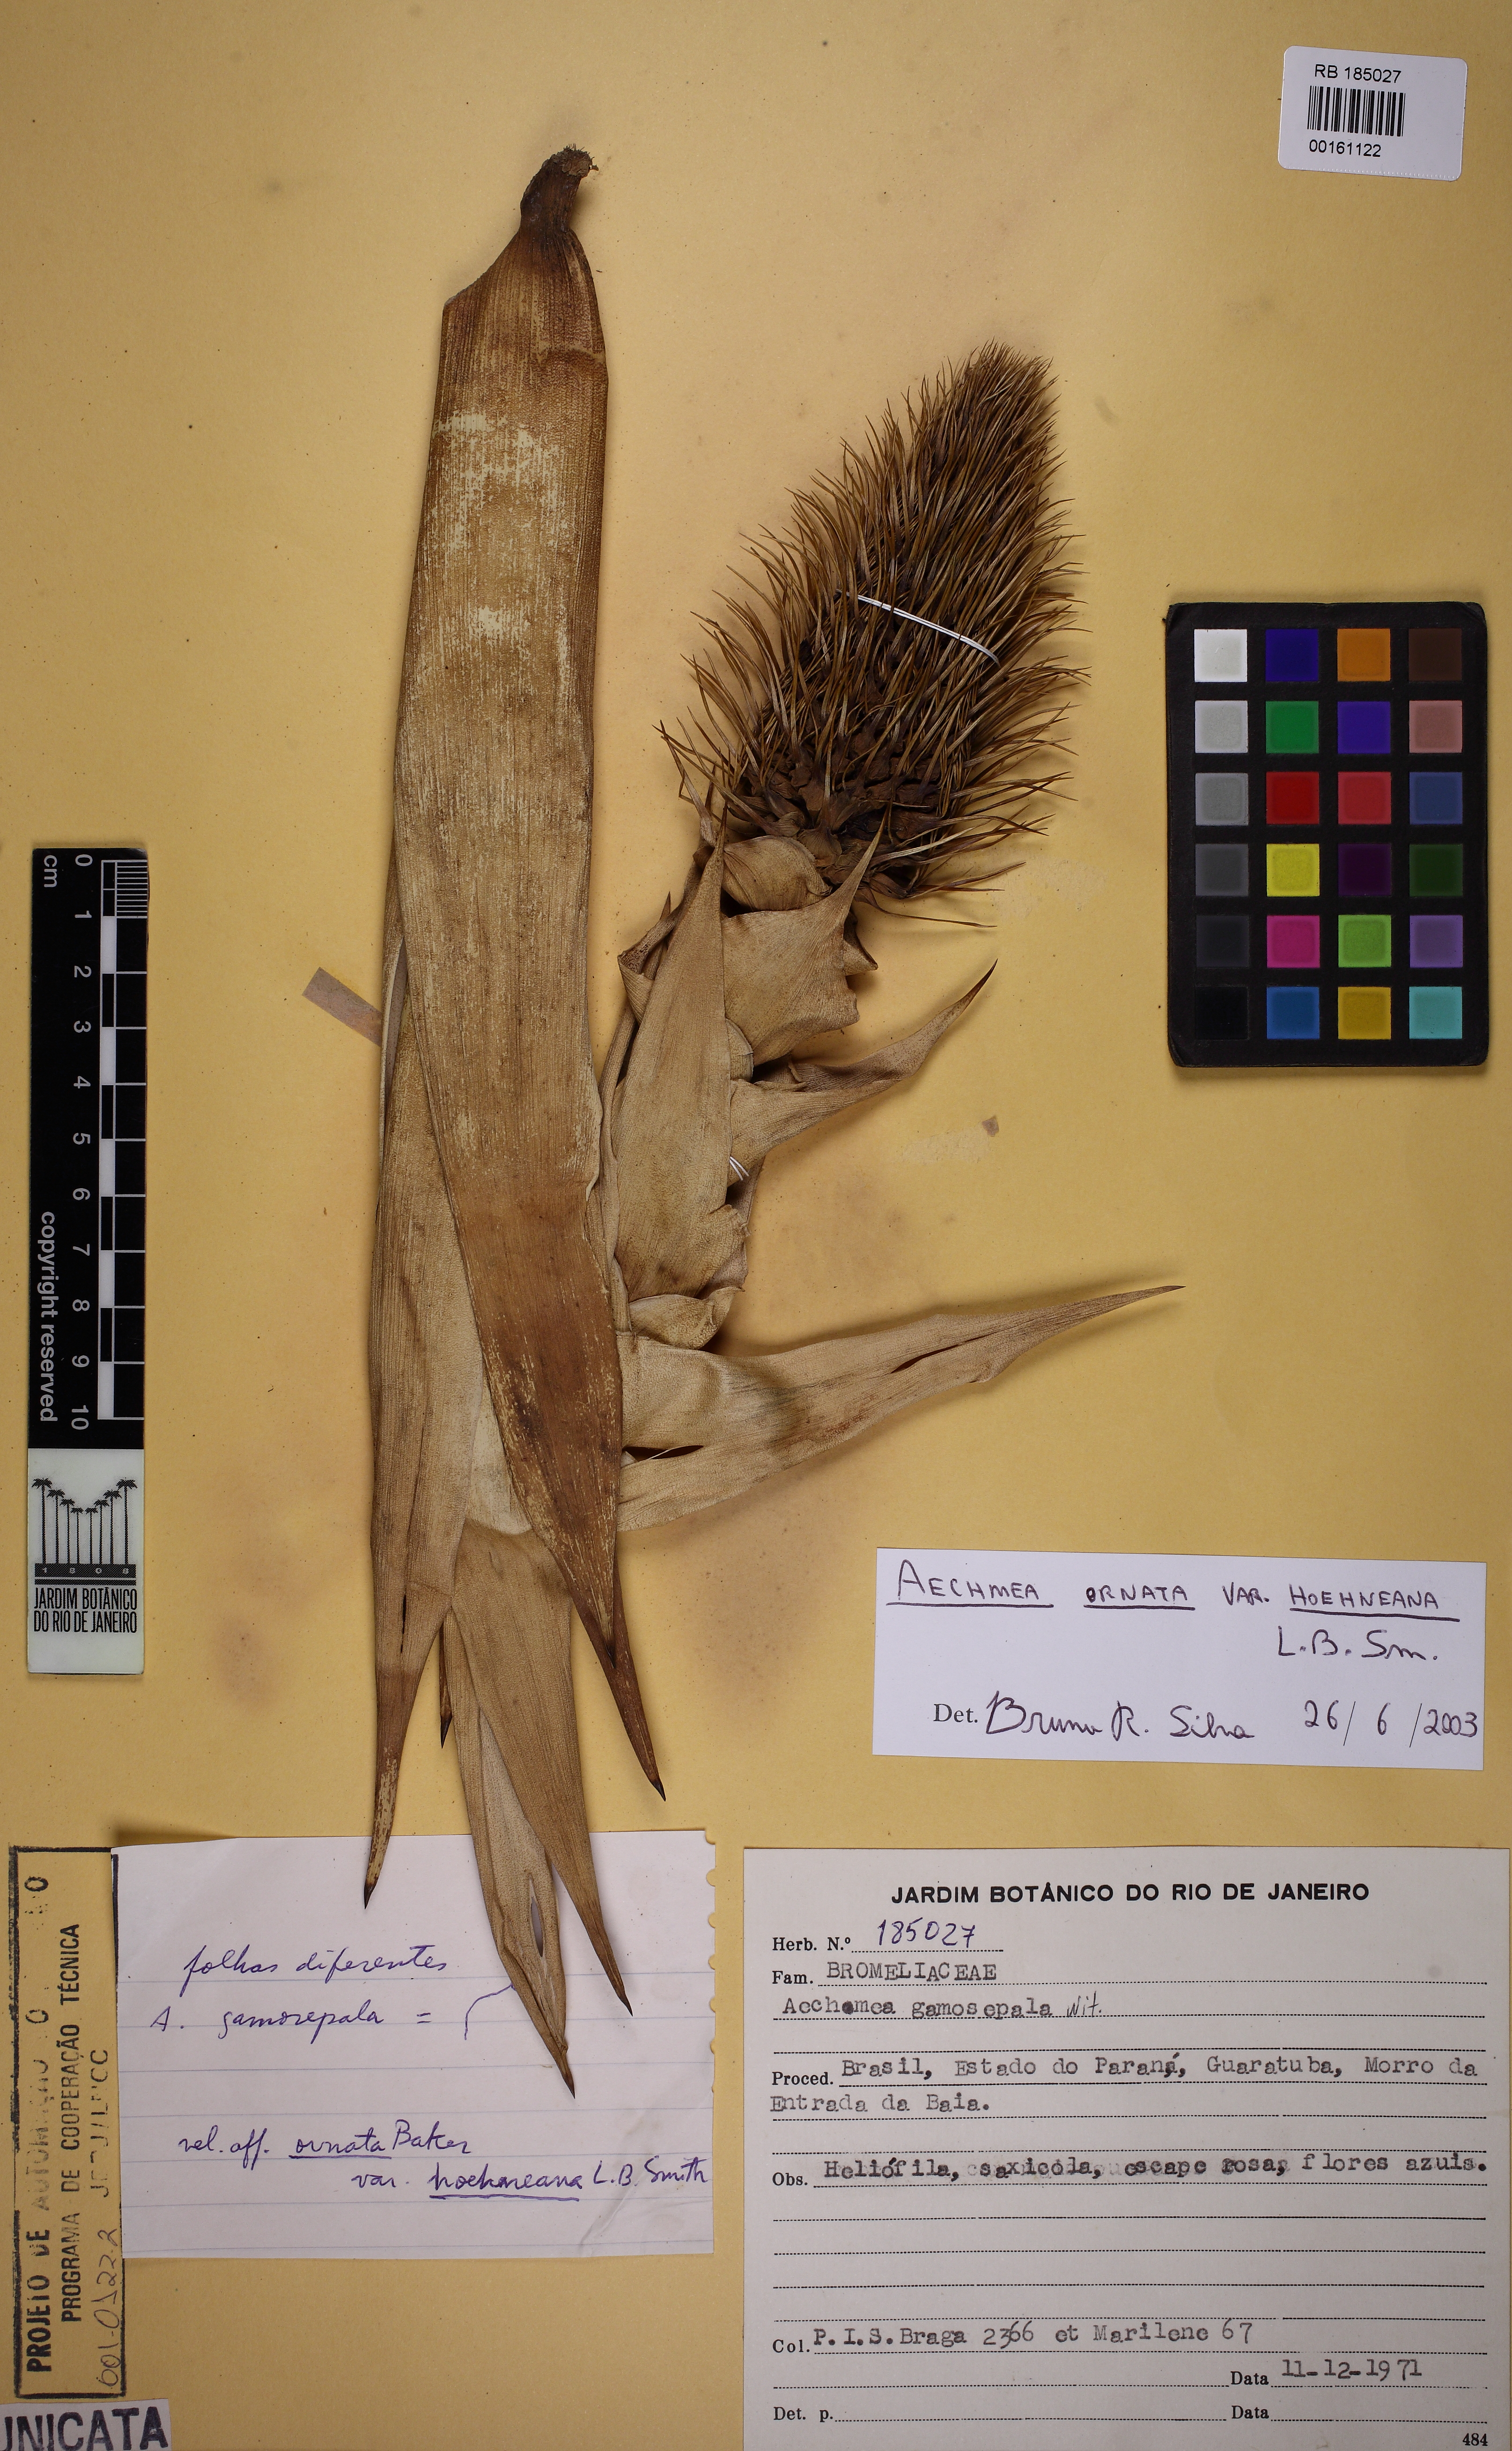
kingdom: Plantae
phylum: Tracheophyta
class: Liliopsida
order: Poales
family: Bromeliaceae
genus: Aechmea
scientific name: Aechmea ornata
